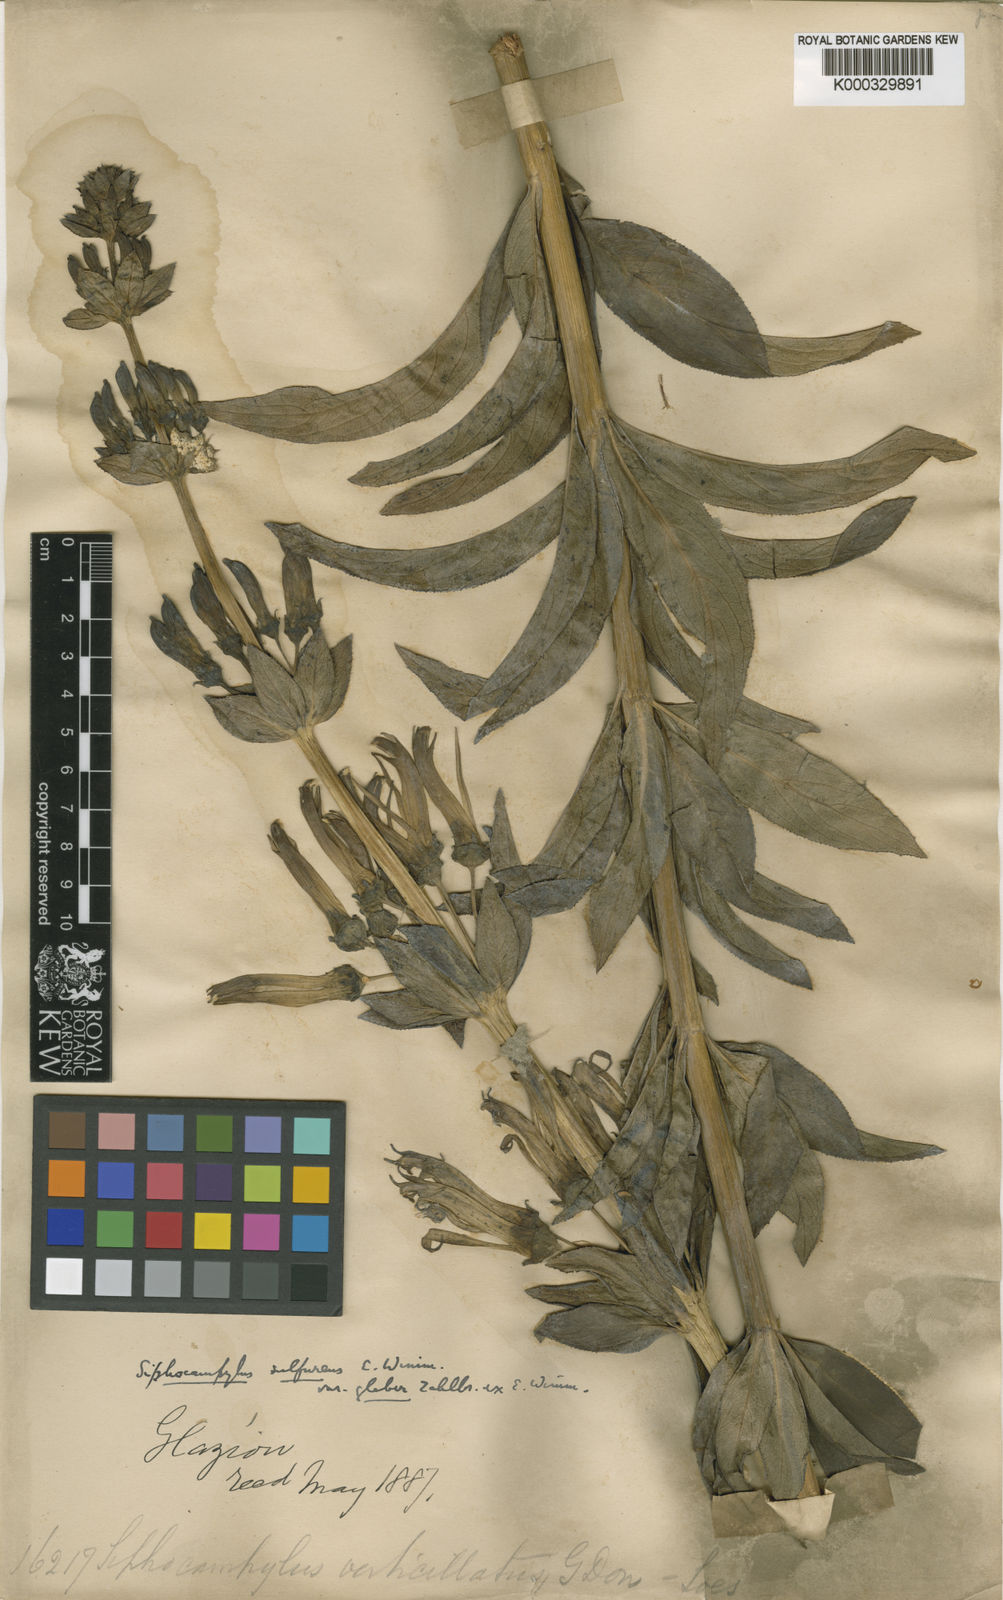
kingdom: Plantae
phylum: Tracheophyta
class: Magnoliopsida
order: Asterales
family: Campanulaceae
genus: Siphocampylus
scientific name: Siphocampylus sulfureus
